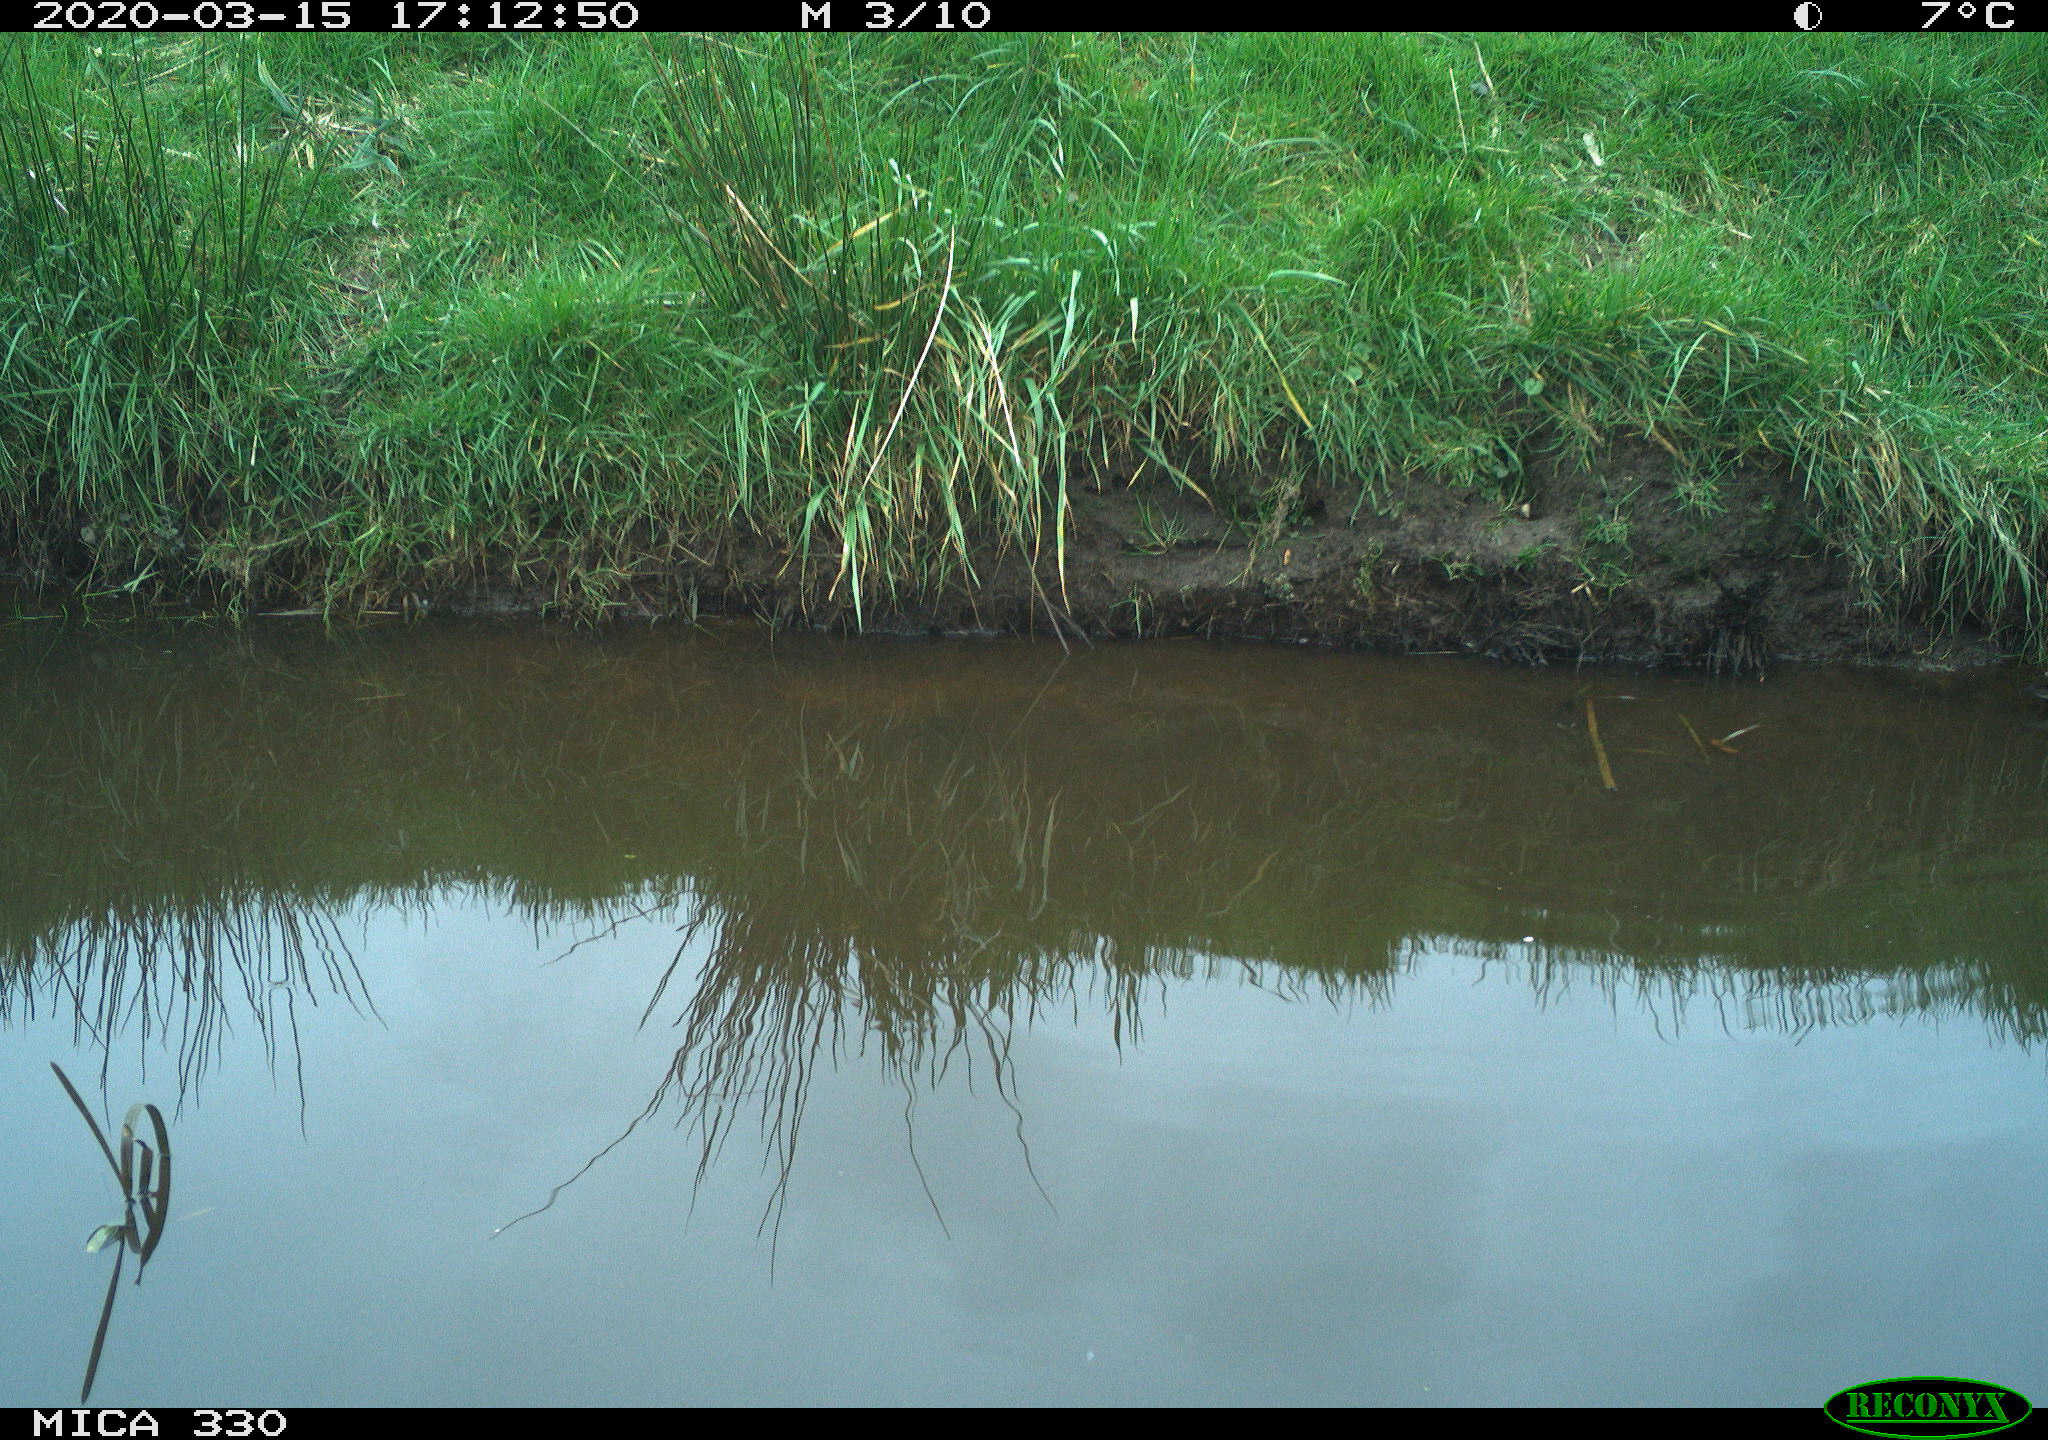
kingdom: Animalia
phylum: Chordata
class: Aves
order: Gruiformes
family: Rallidae
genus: Gallinula
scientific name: Gallinula chloropus
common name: Common moorhen
